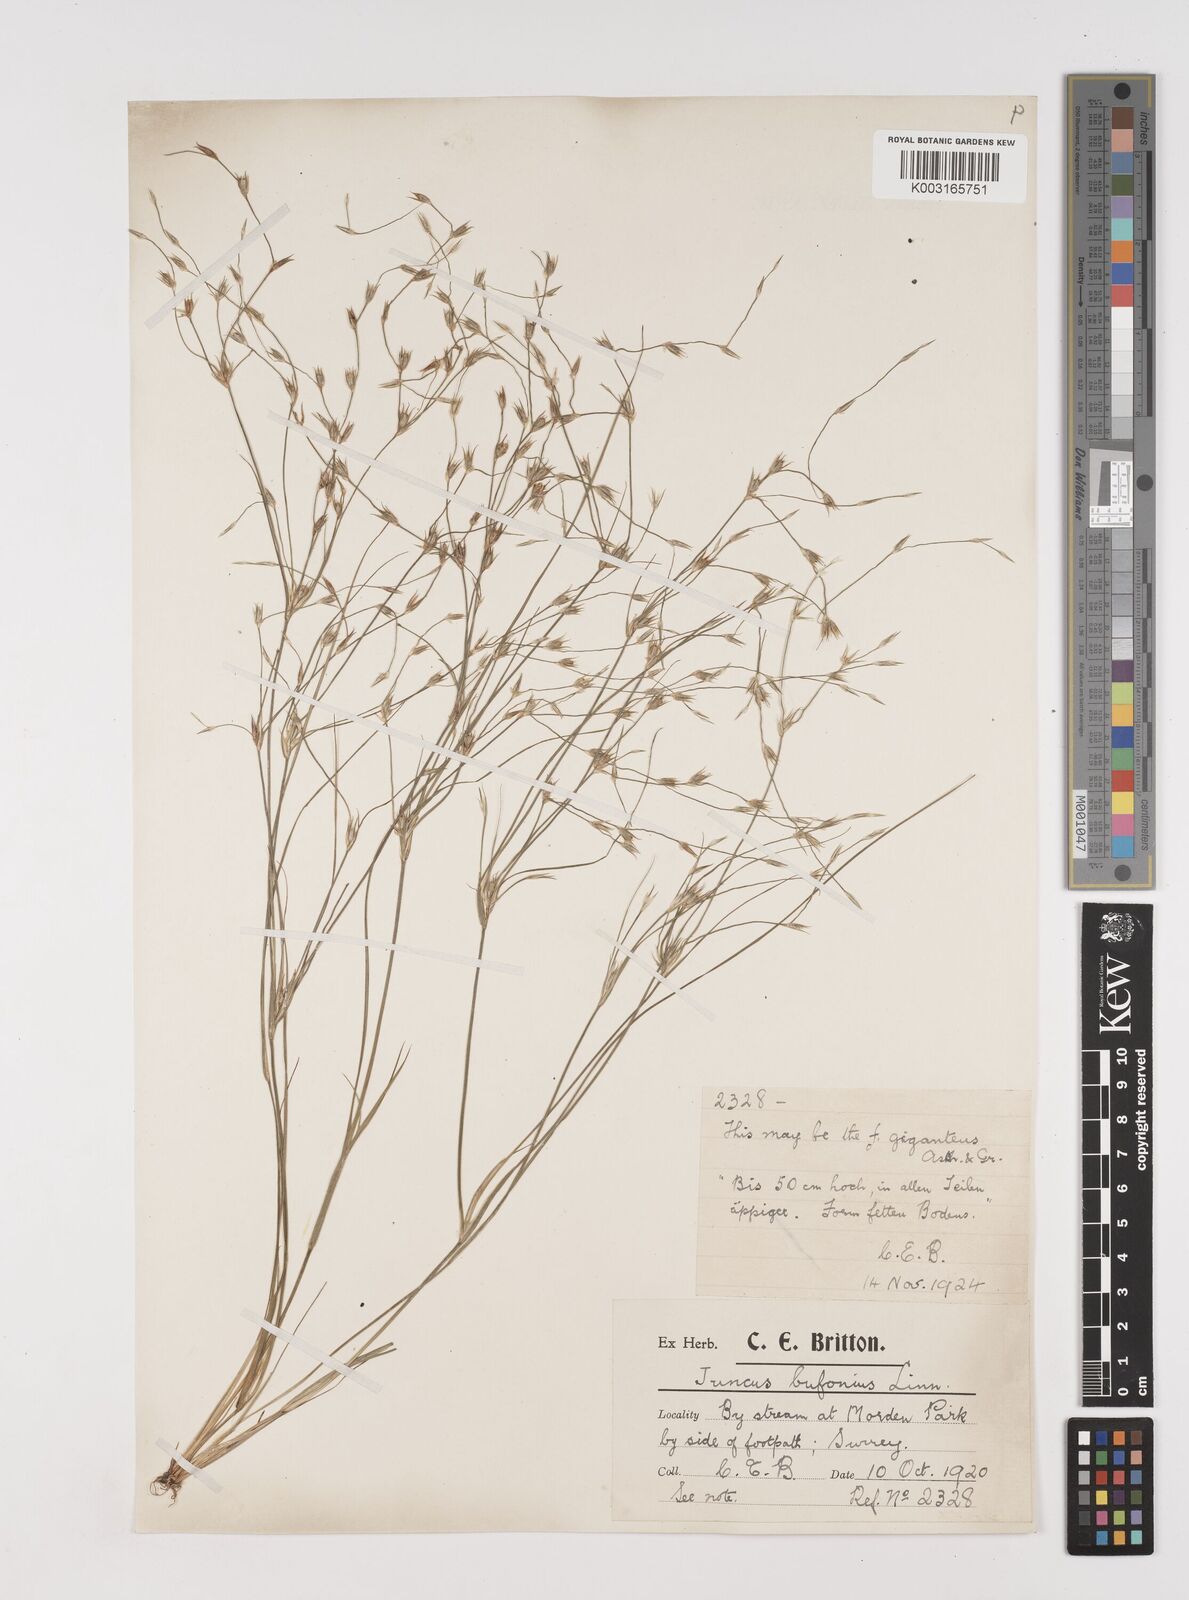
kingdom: Plantae
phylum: Tracheophyta
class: Liliopsida
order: Poales
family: Juncaceae
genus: Juncus
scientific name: Juncus bufonius
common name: Toad rush
